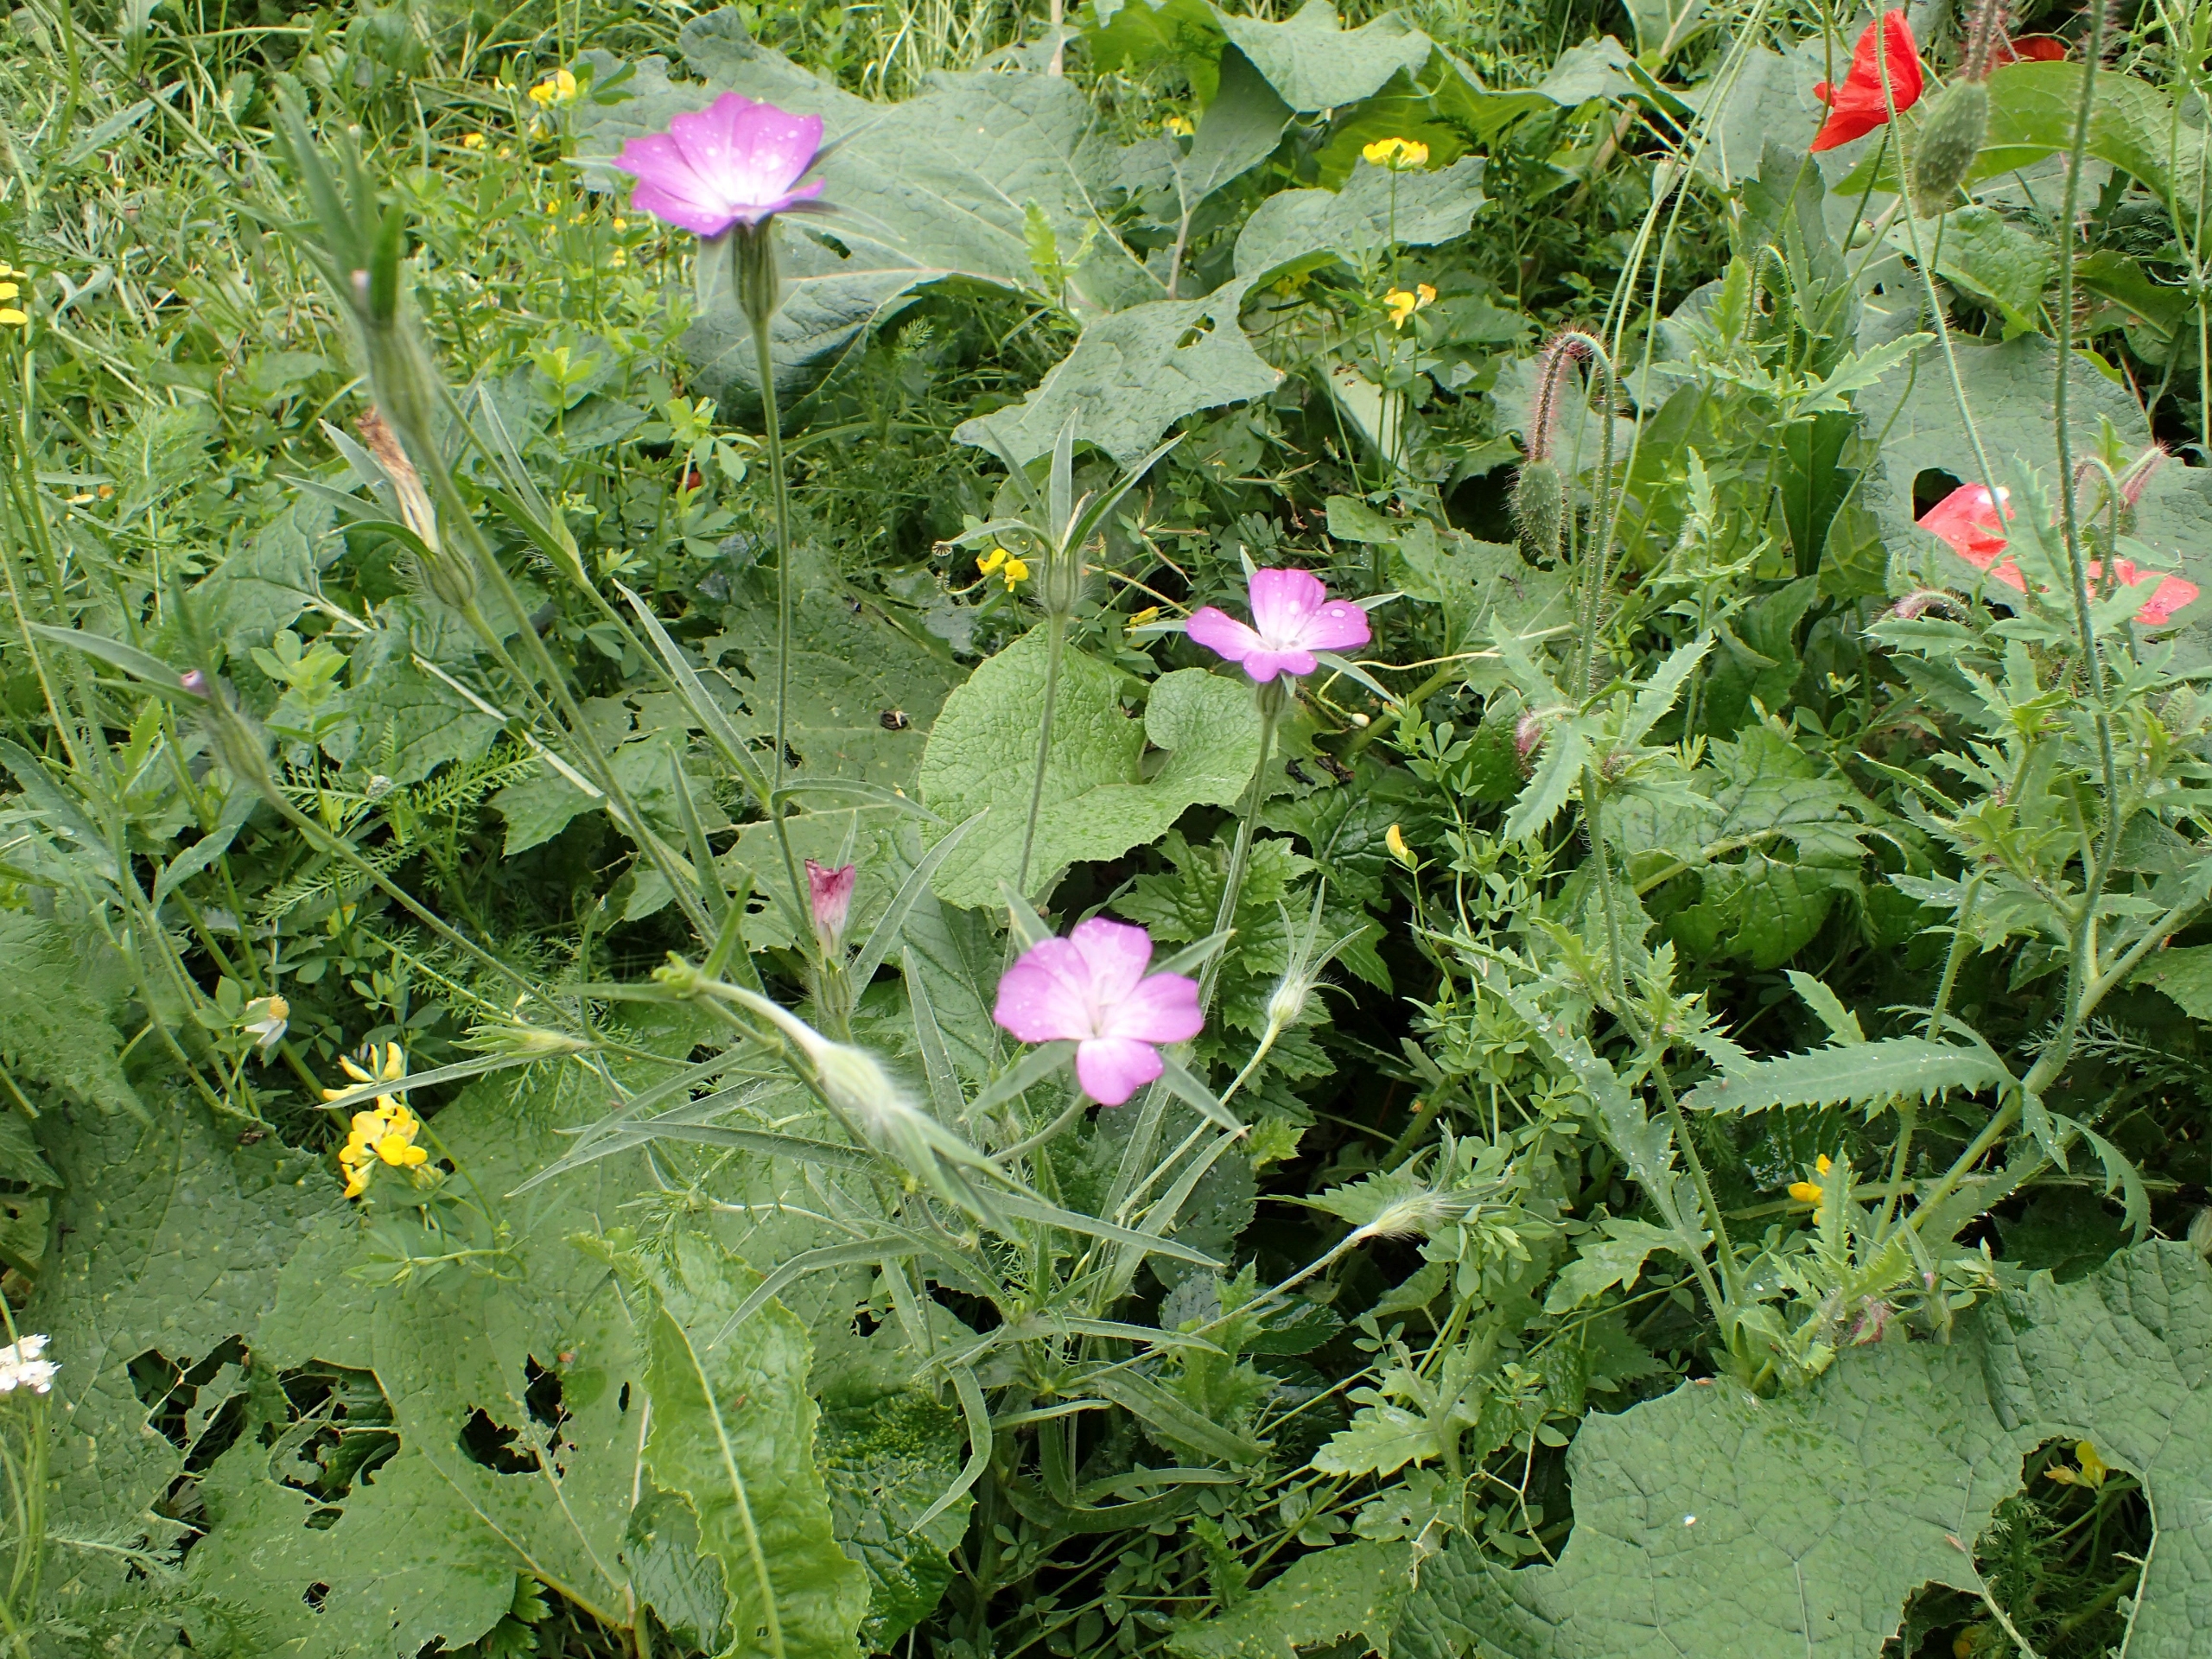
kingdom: Plantae
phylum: Tracheophyta
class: Magnoliopsida
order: Caryophyllales
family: Caryophyllaceae
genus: Agrostemma
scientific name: Agrostemma githago
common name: Klinte
